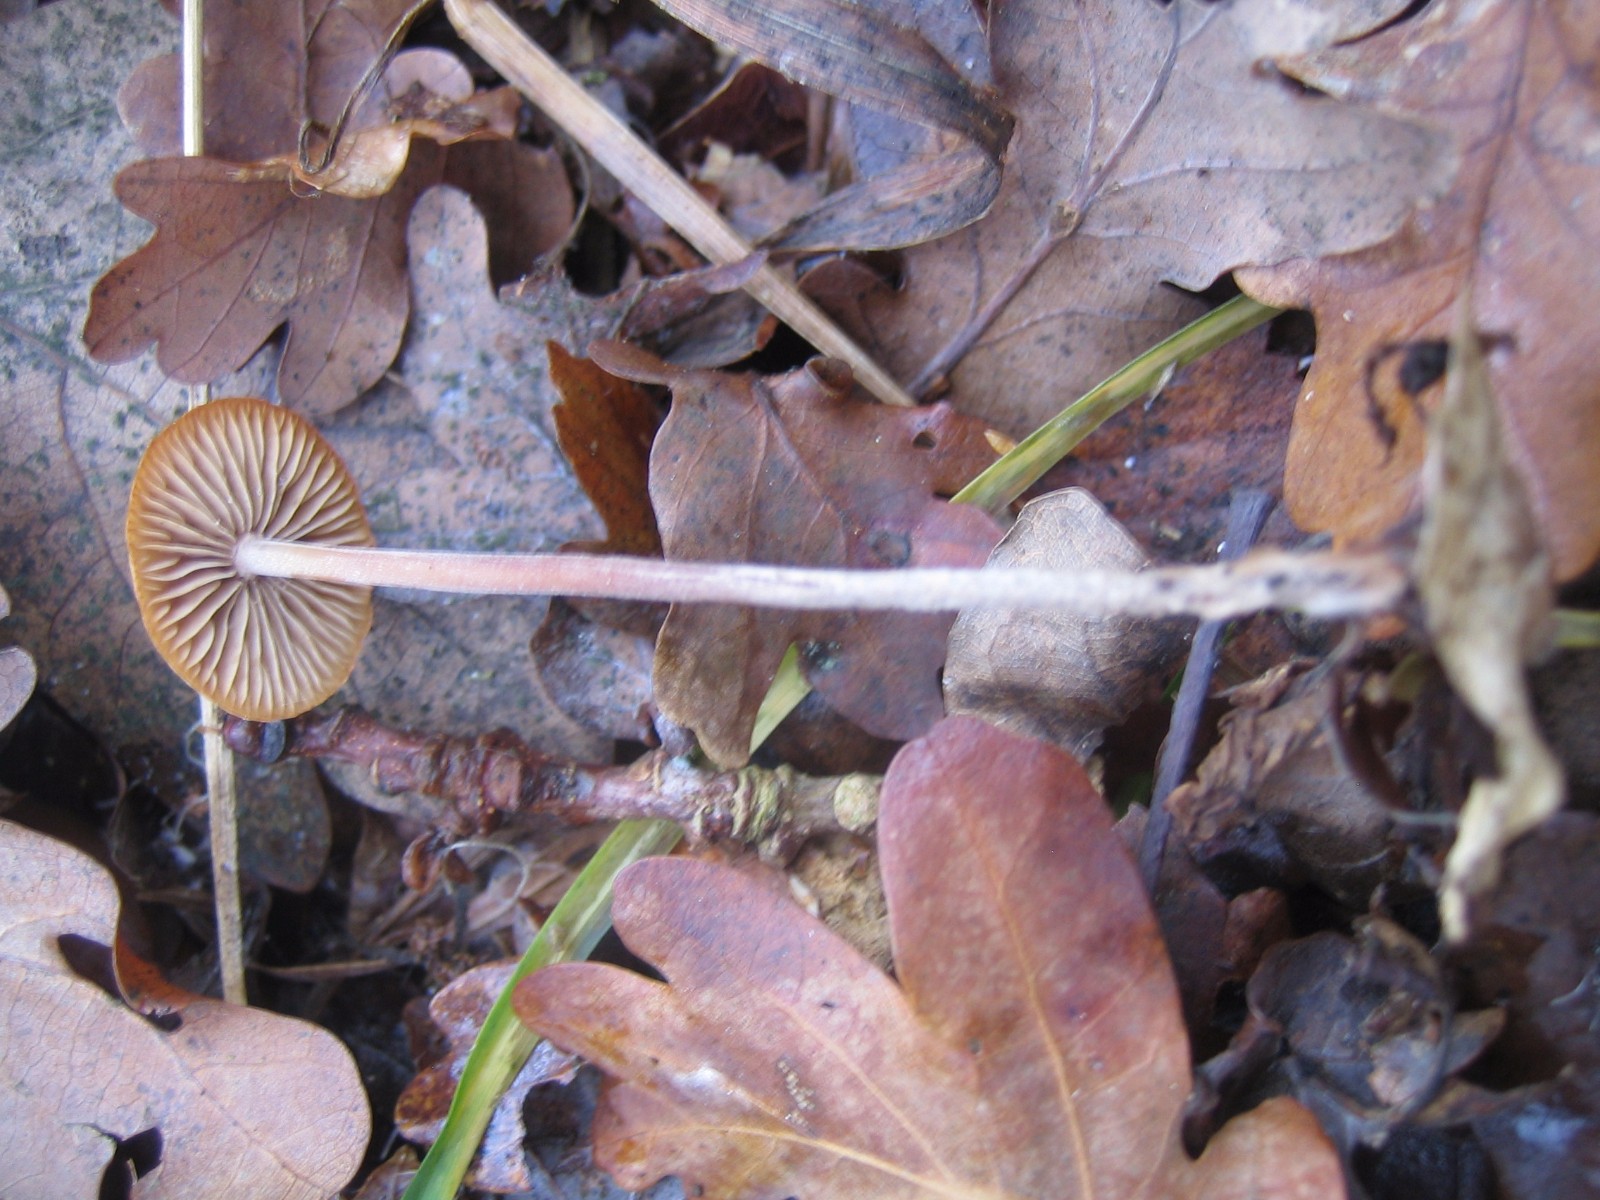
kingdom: Fungi
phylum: Basidiomycota
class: Agaricomycetes
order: Agaricales
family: Omphalotaceae
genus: Gymnopus
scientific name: Gymnopus
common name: fladhat
